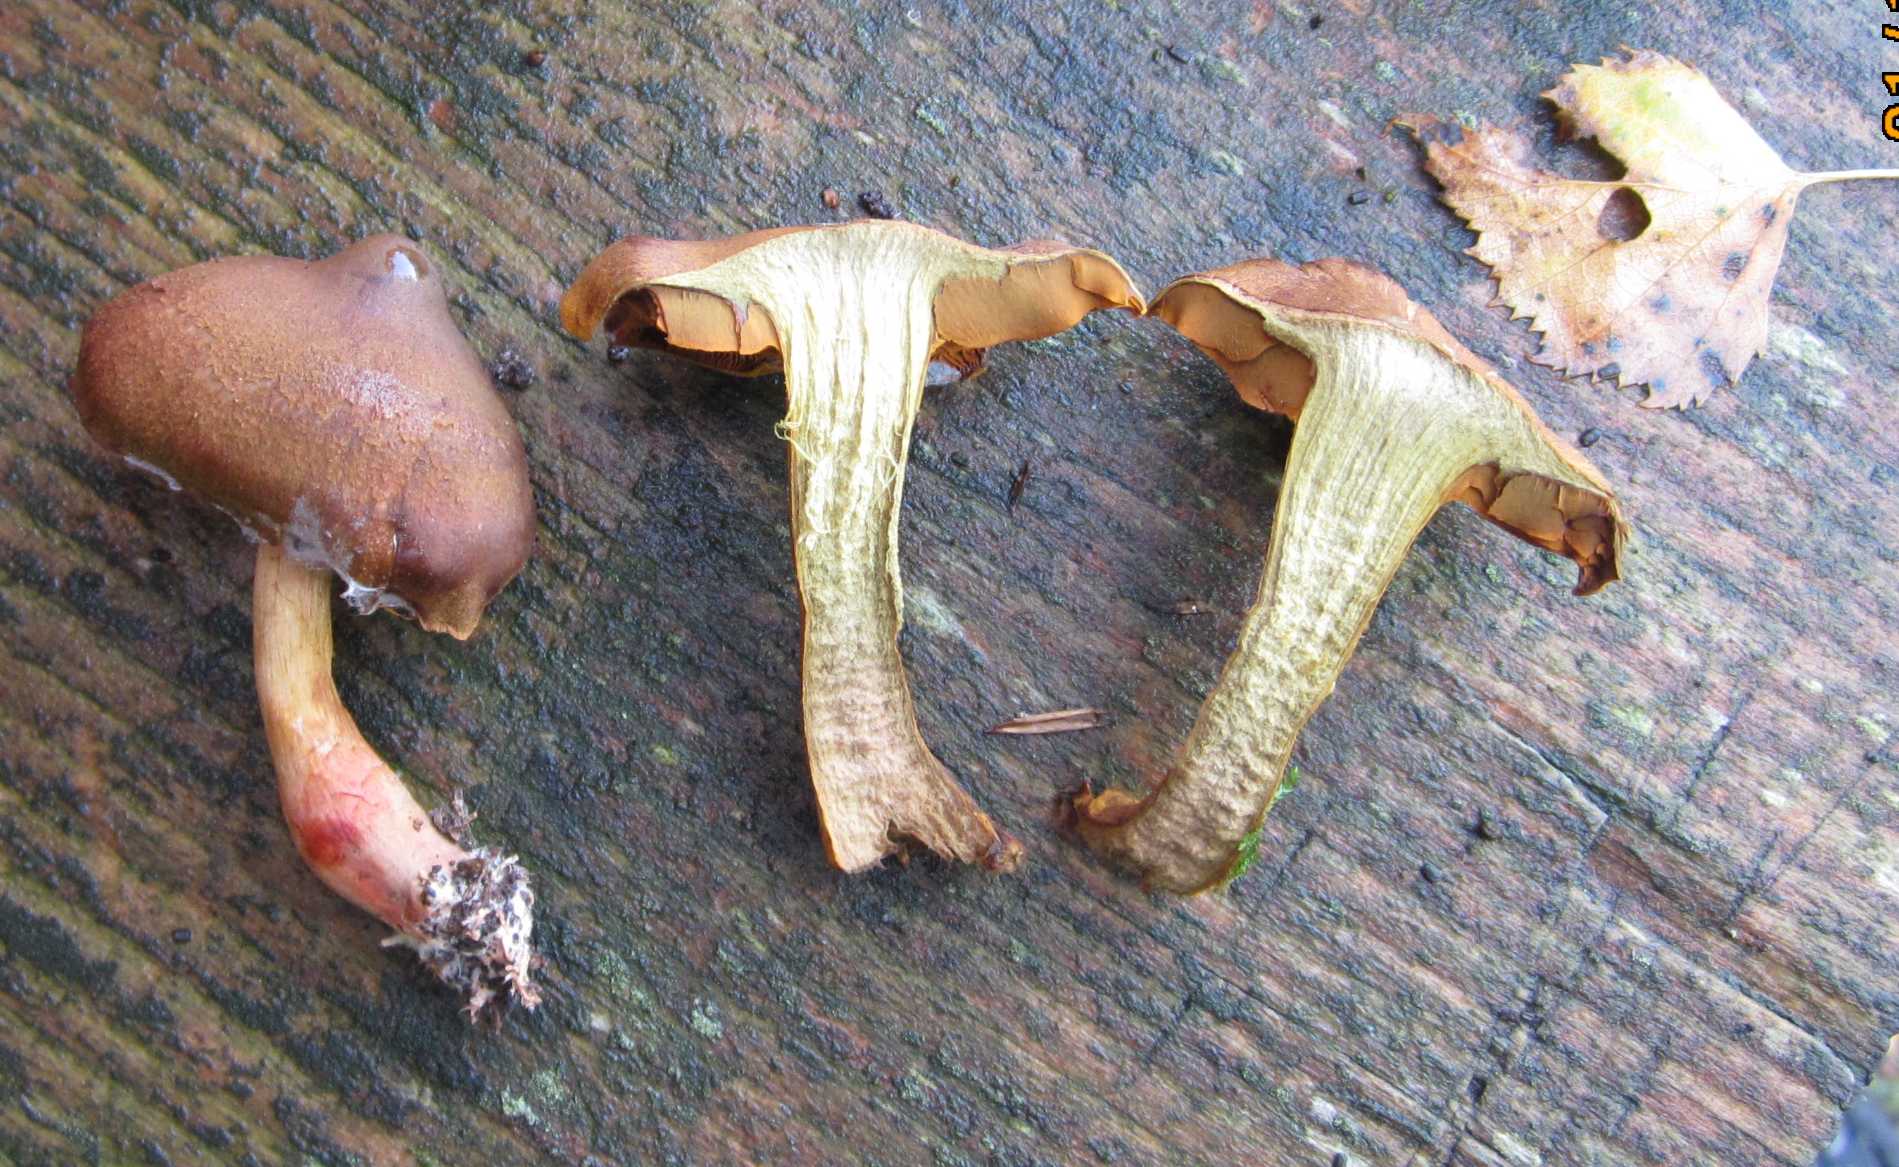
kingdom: Fungi
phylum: Basidiomycota
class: Agaricomycetes
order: Agaricales
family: Cortinariaceae
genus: Cortinarius
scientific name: Cortinarius malicorius
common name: grønkødet slørhat
